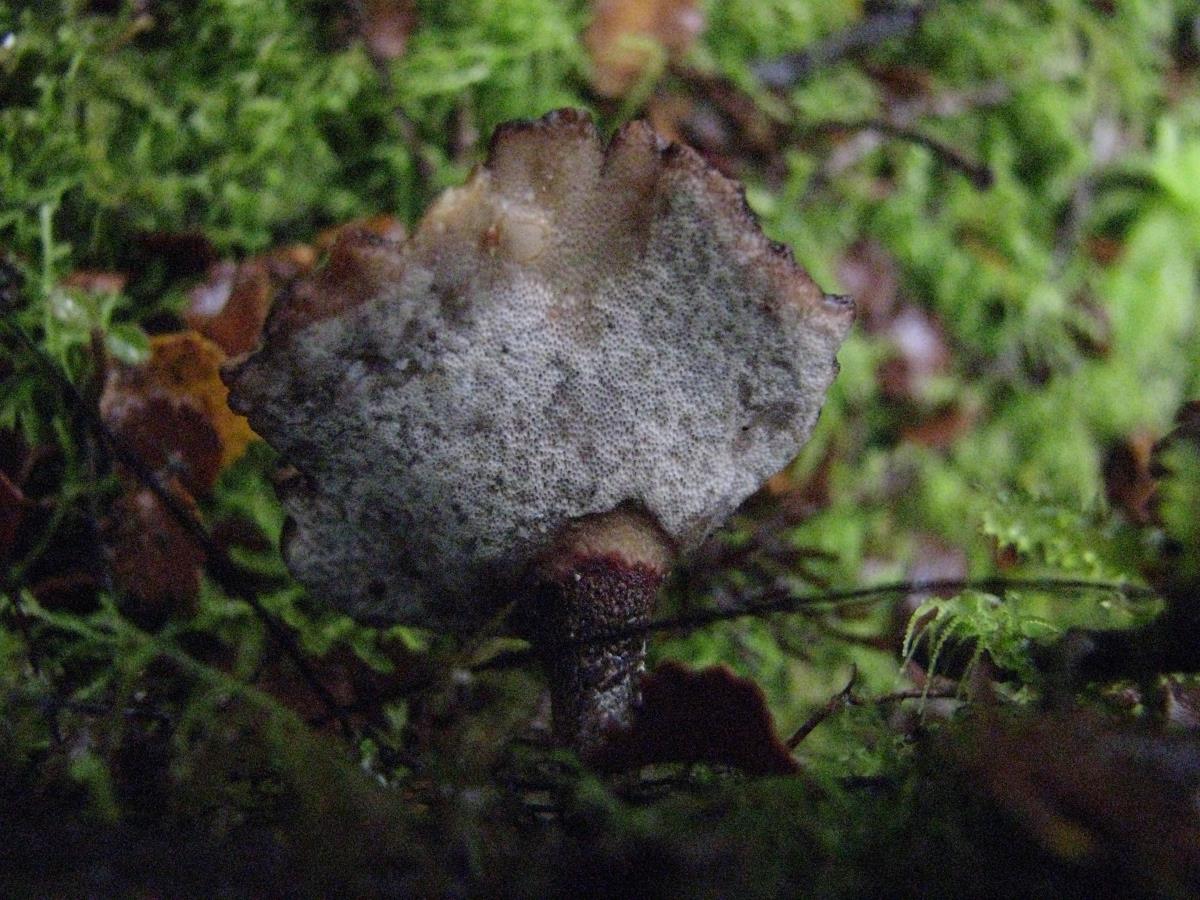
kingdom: Fungi
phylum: Basidiomycota
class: Agaricomycetes
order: Polyporales
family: Polyporaceae
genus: Picipes
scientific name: Picipes dictyopus
